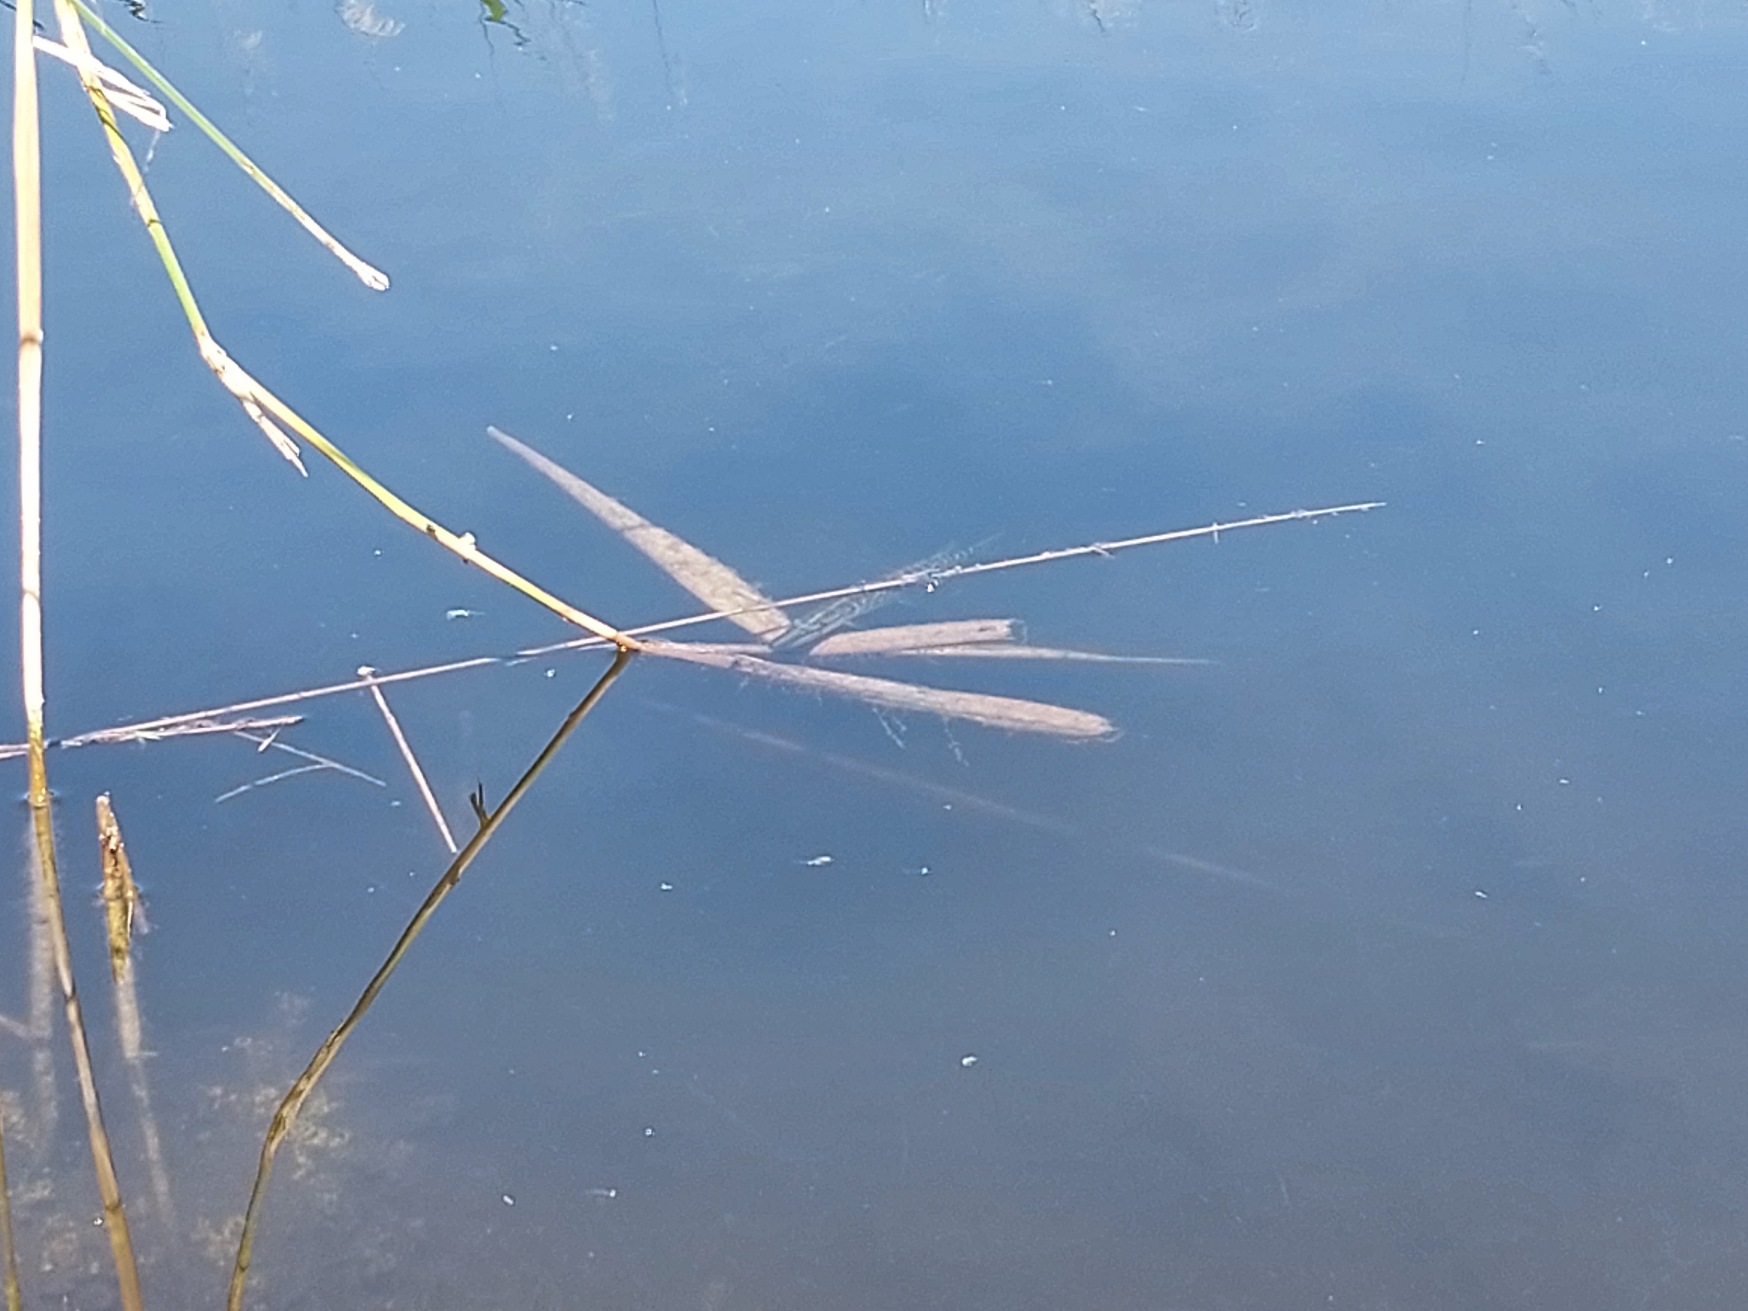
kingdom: Animalia
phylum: Chordata
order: Esociformes
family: Esocidae
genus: Esox
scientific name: Esox lucius
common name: Gedde
